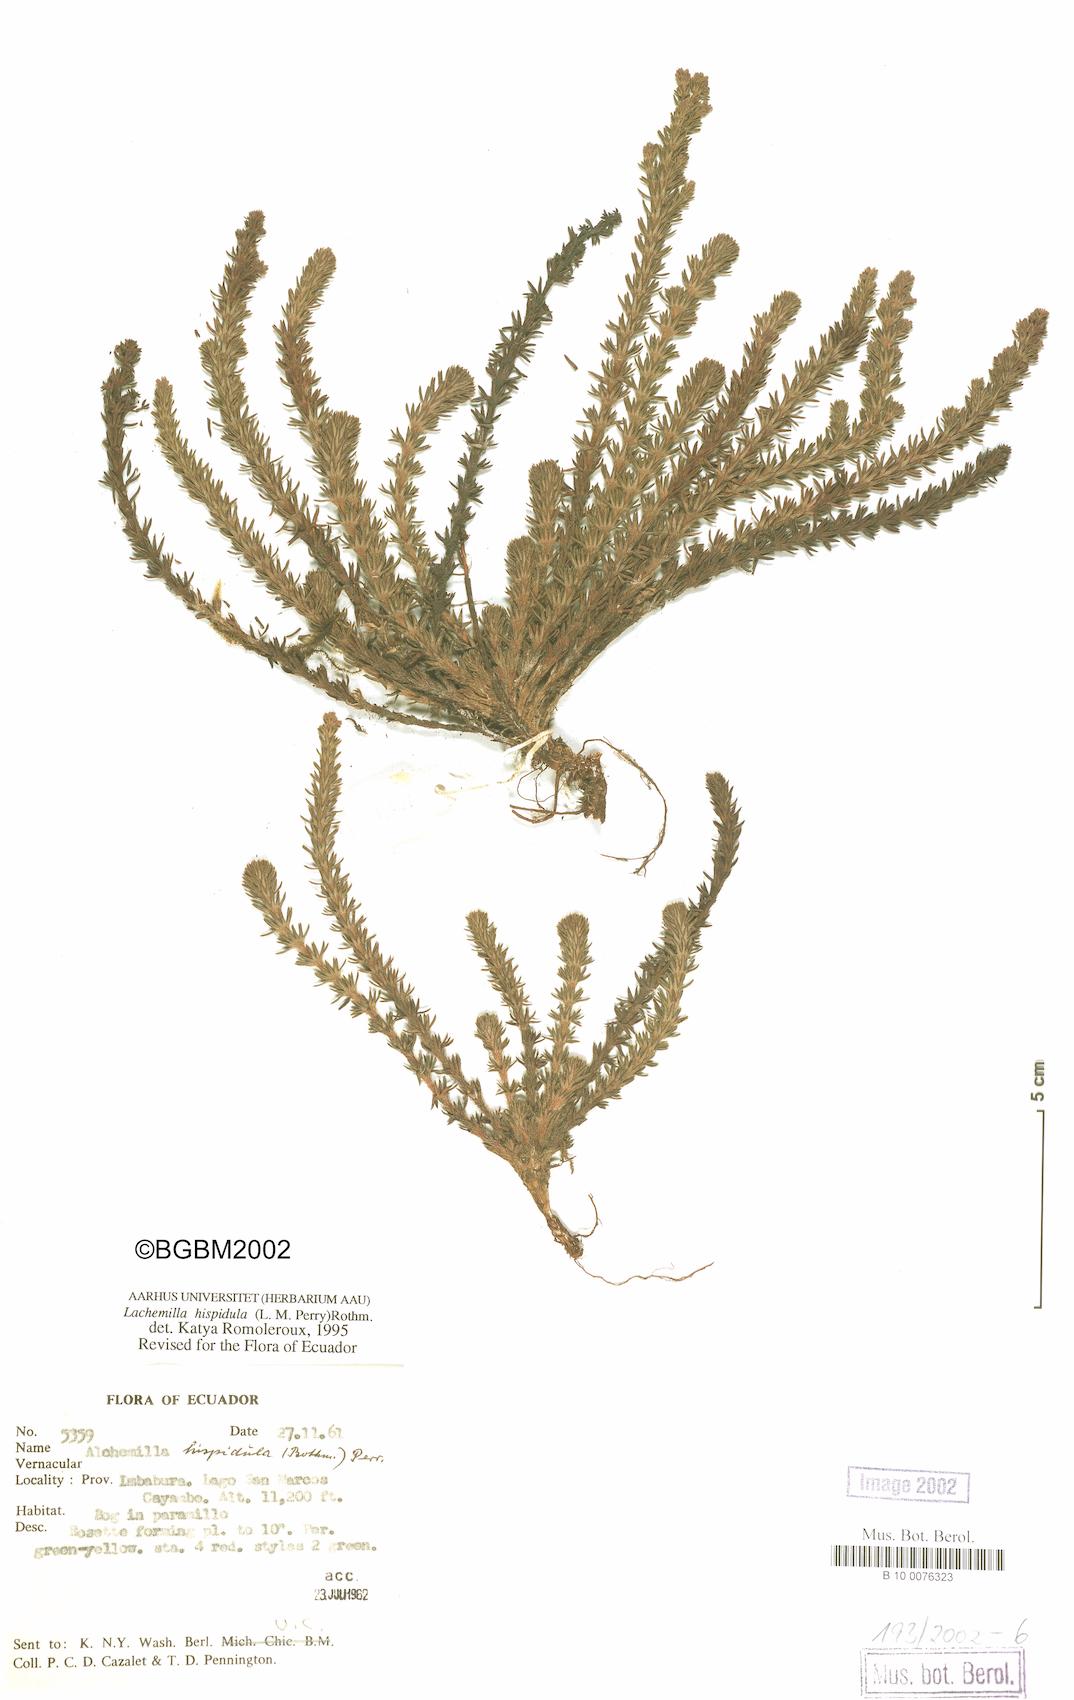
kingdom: Plantae
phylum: Tracheophyta
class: Magnoliopsida
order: Rosales
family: Rosaceae
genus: Lachemilla
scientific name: Lachemilla hispidula
